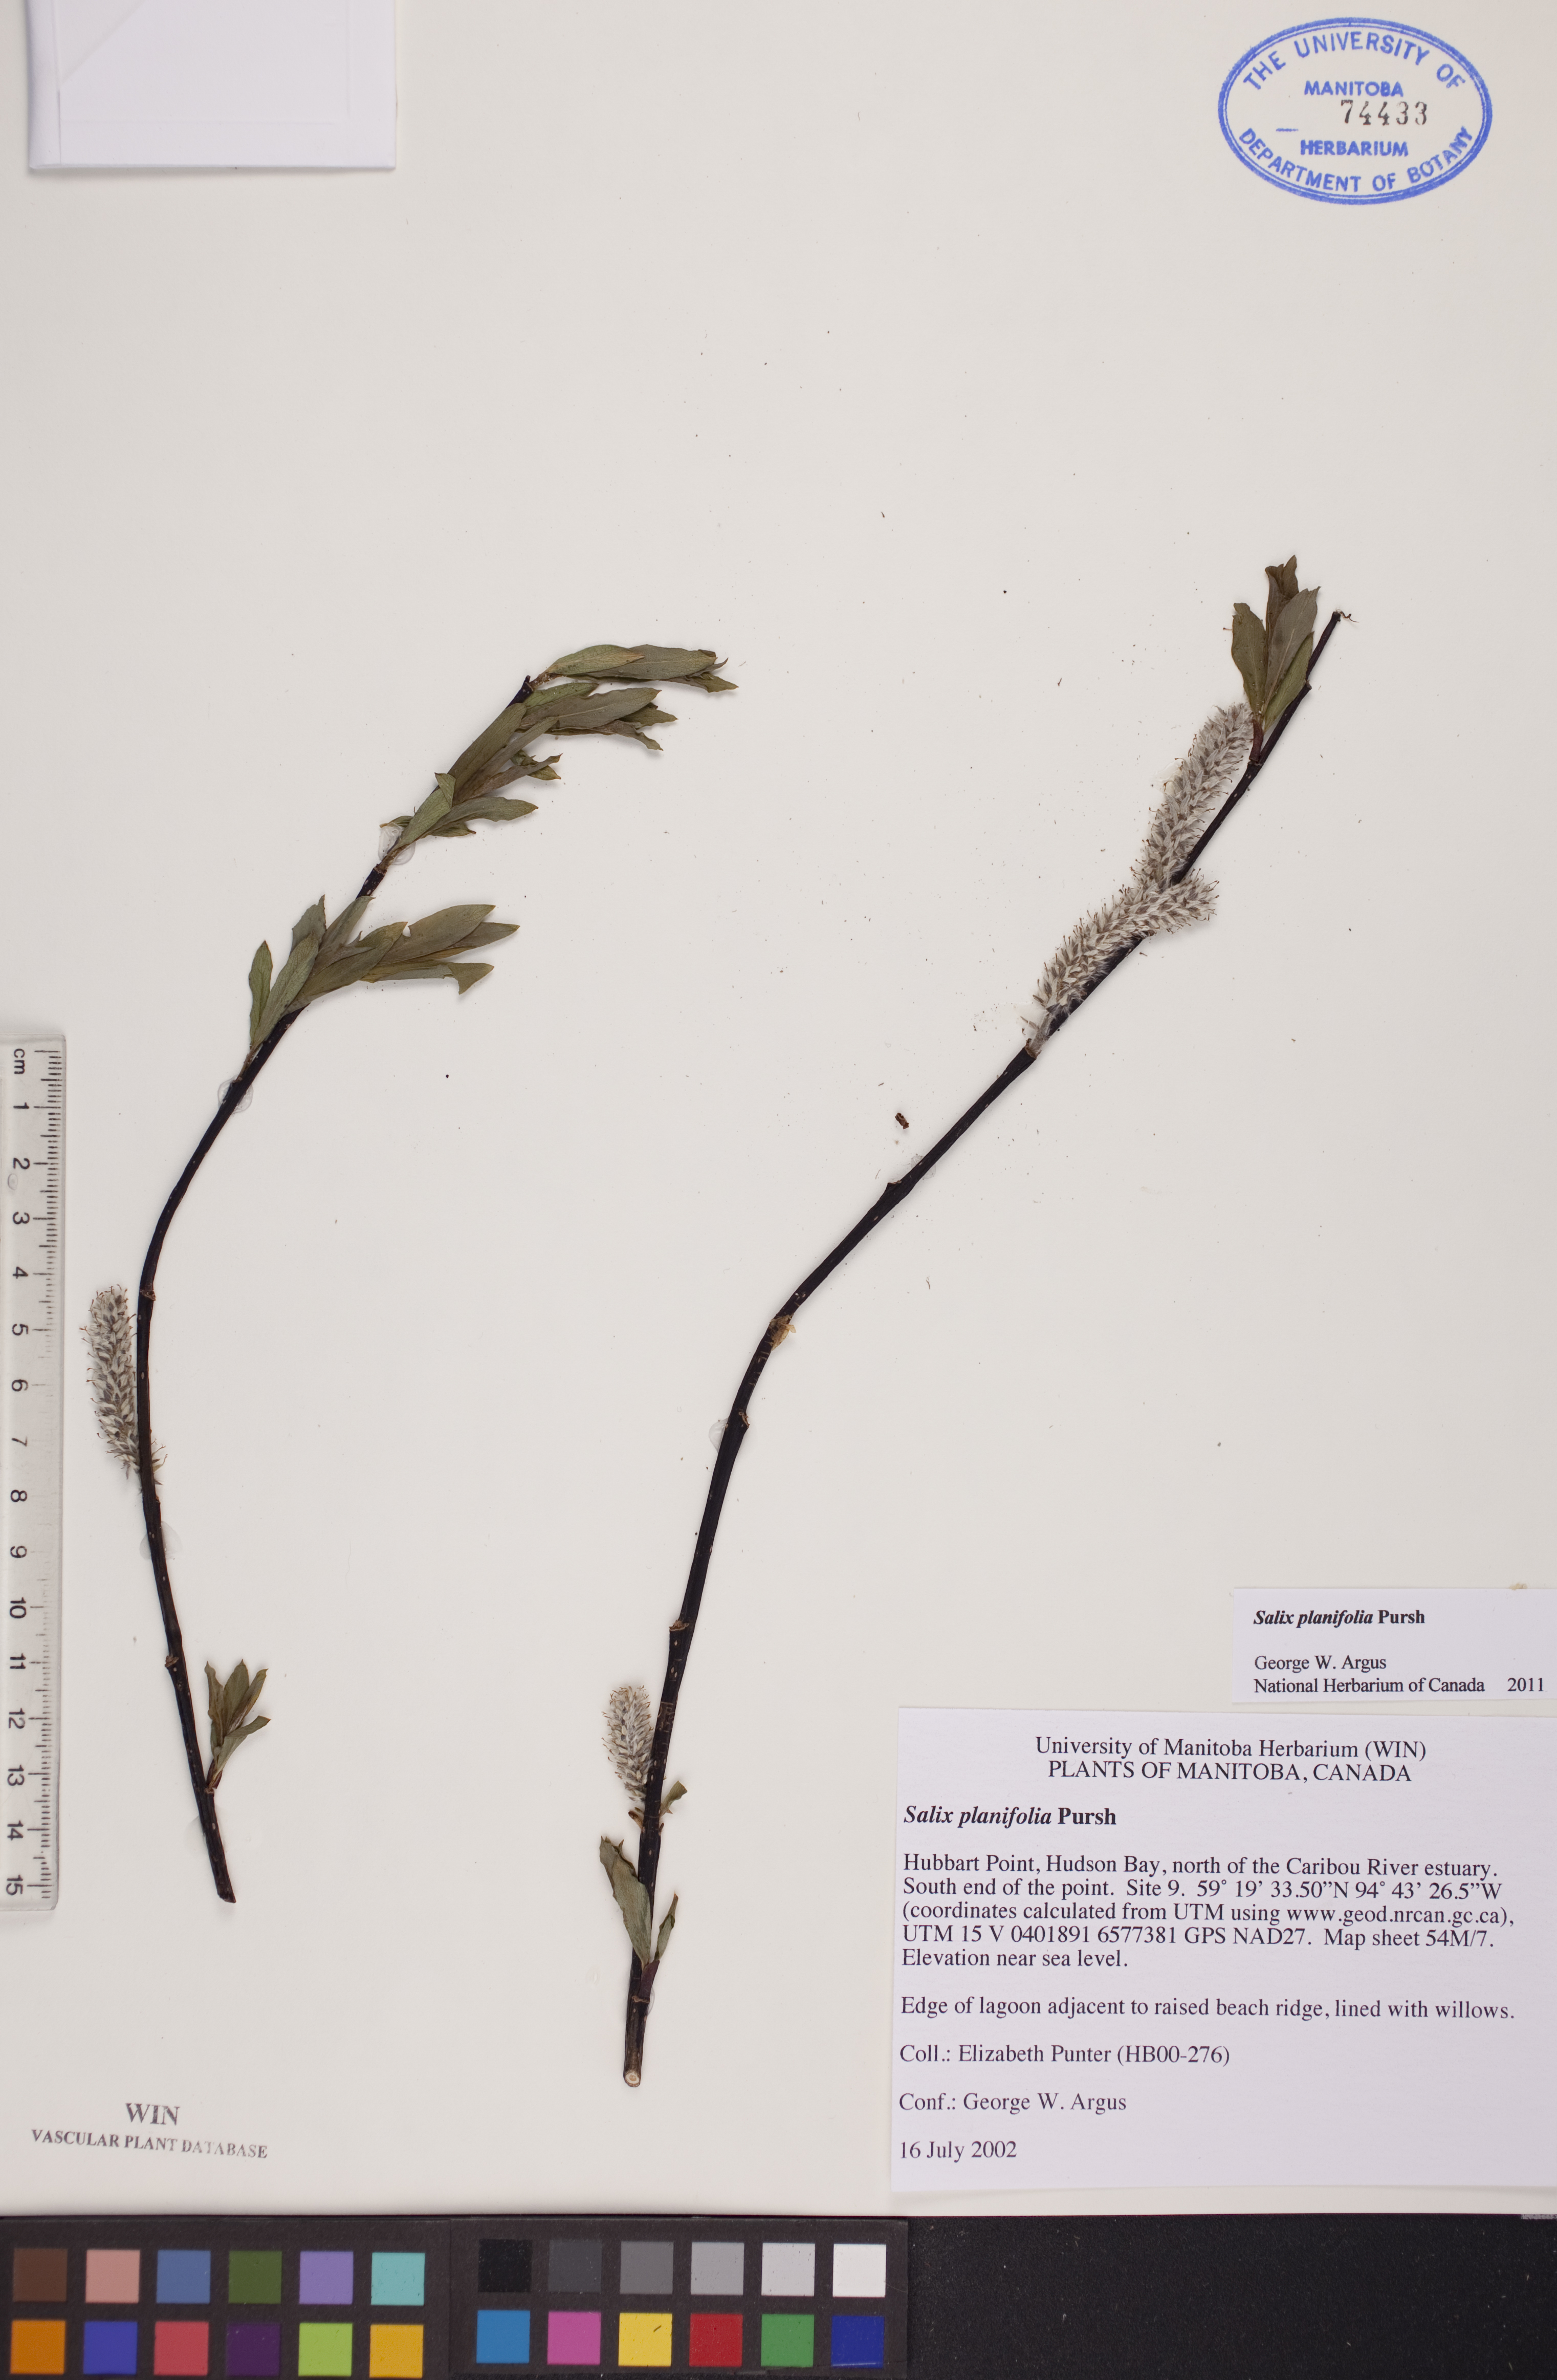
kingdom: Plantae
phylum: Tracheophyta
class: Magnoliopsida
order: Malpighiales
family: Salicaceae
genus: Salix
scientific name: Salix planifolia
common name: Mountain willow
